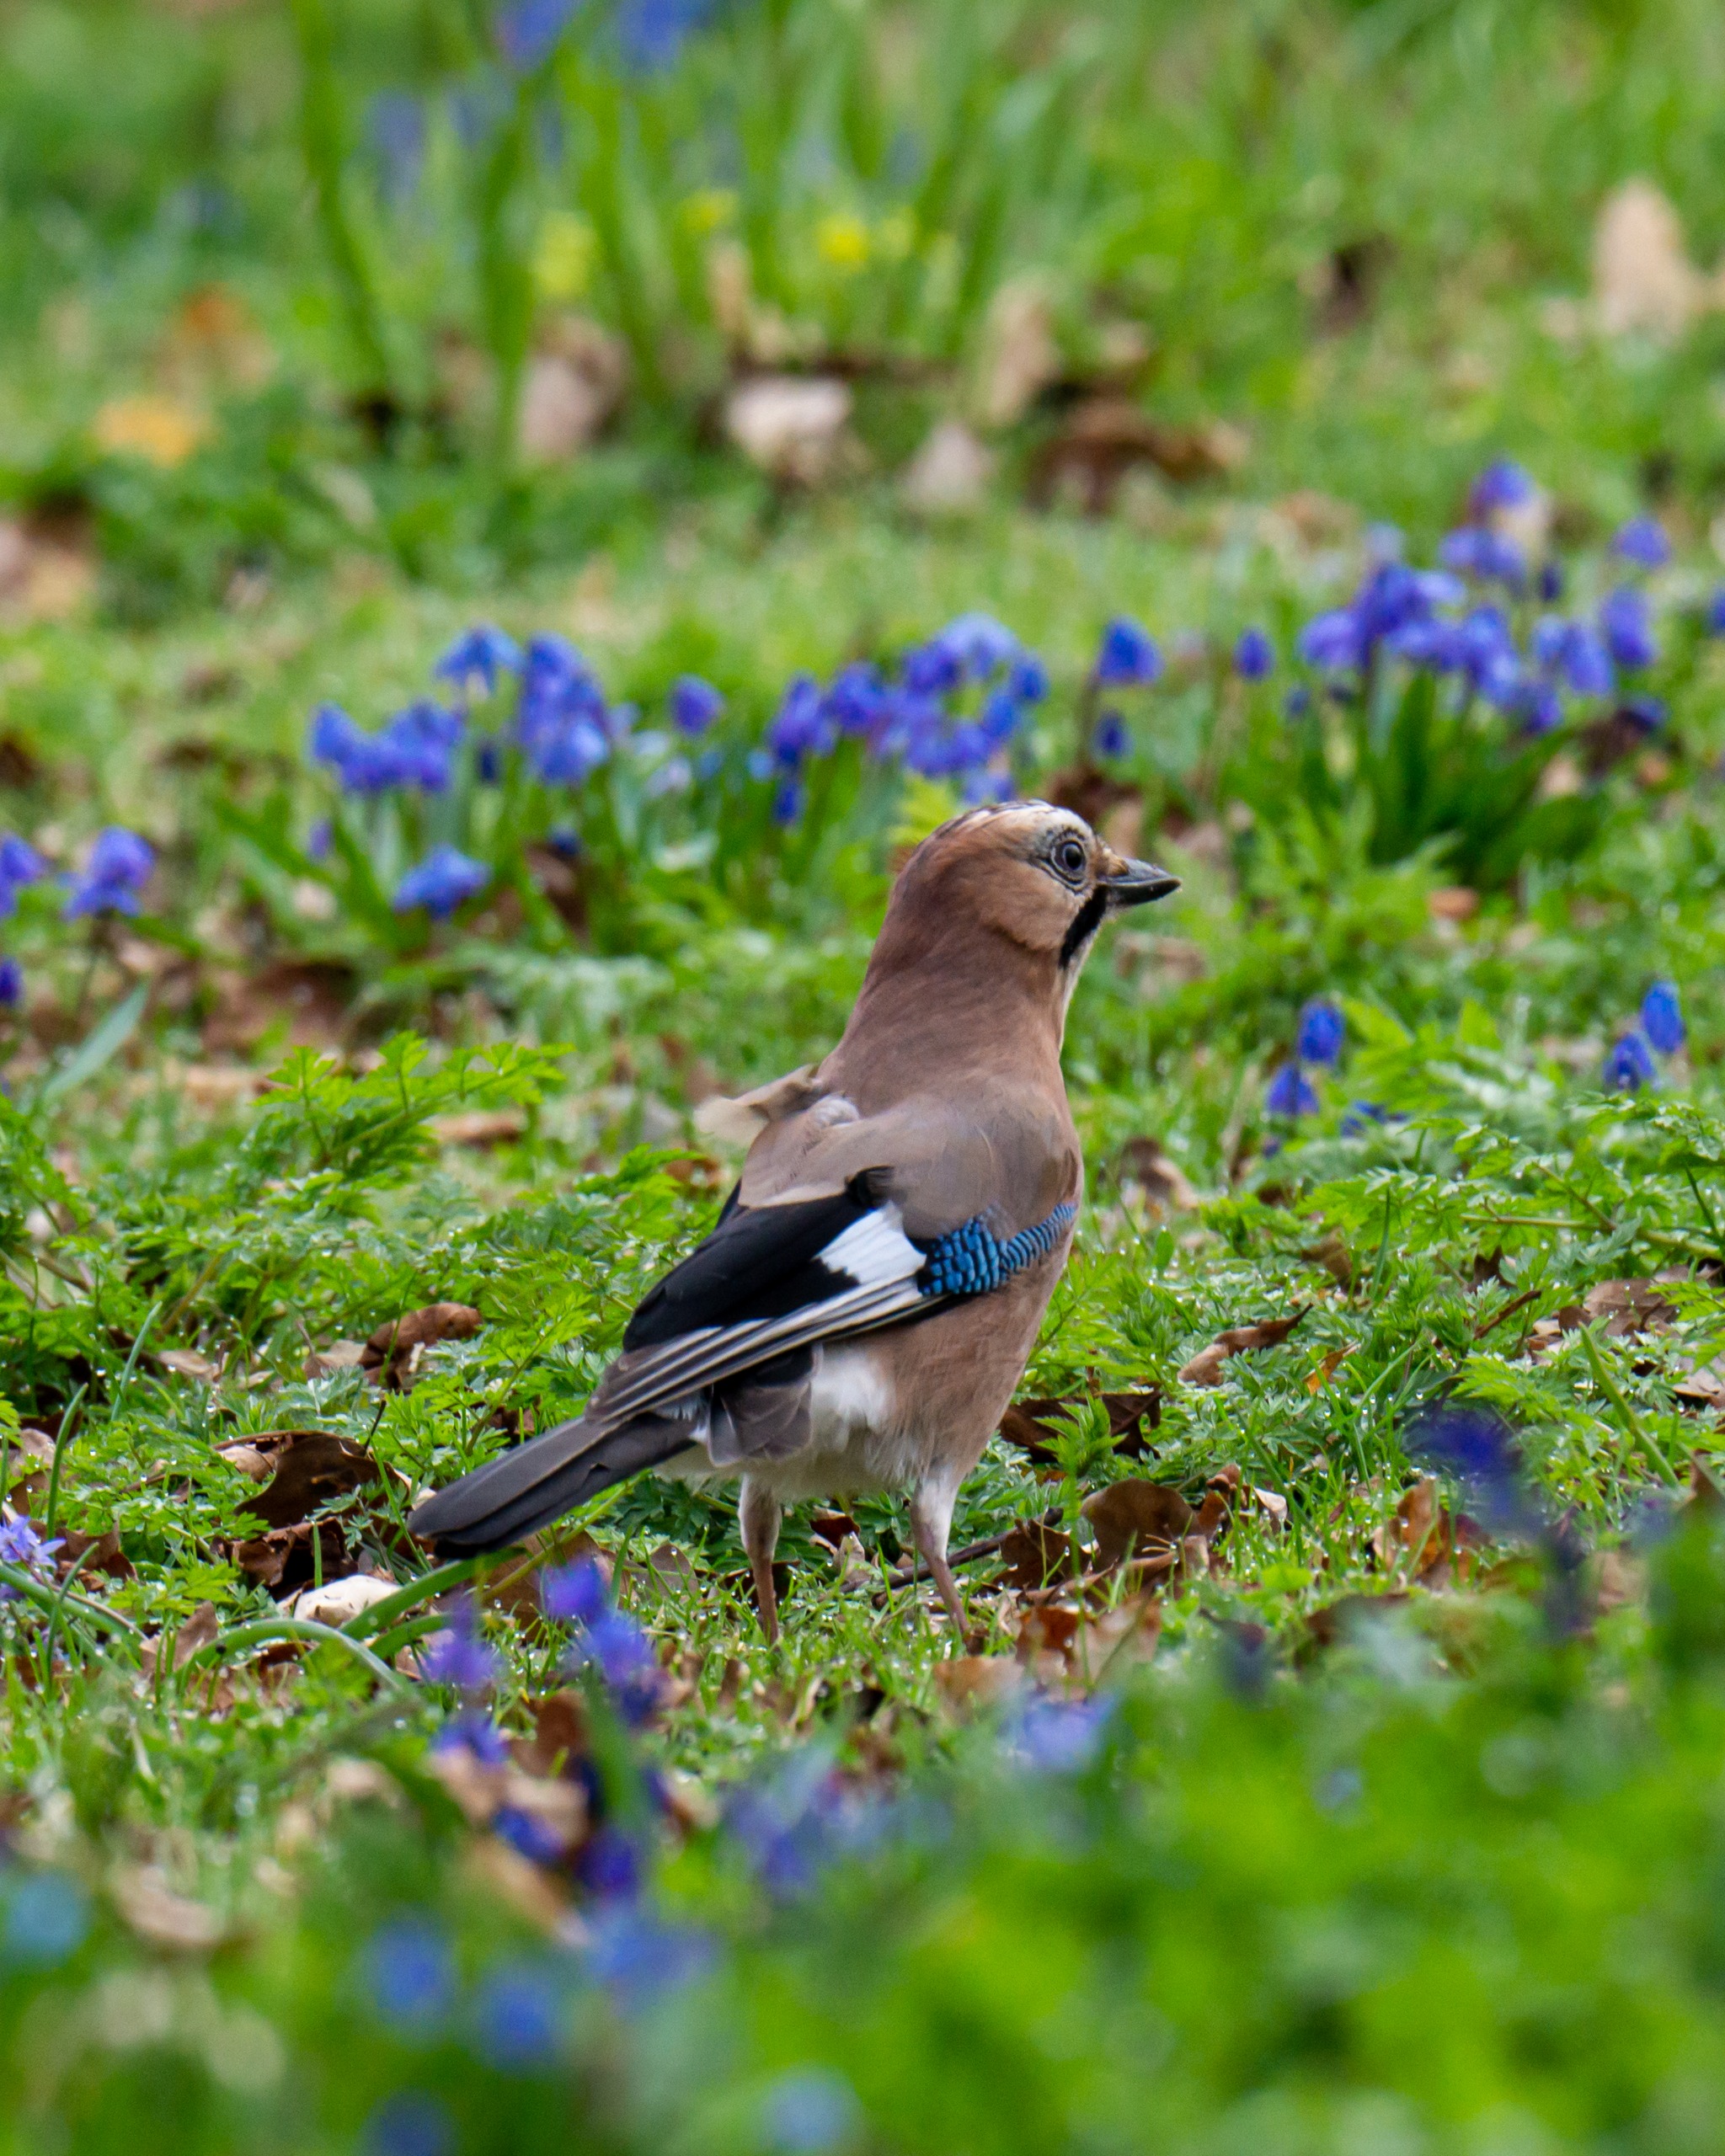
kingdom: Animalia
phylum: Chordata
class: Aves
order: Passeriformes
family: Corvidae
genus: Garrulus
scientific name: Garrulus glandarius
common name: Skovskade
